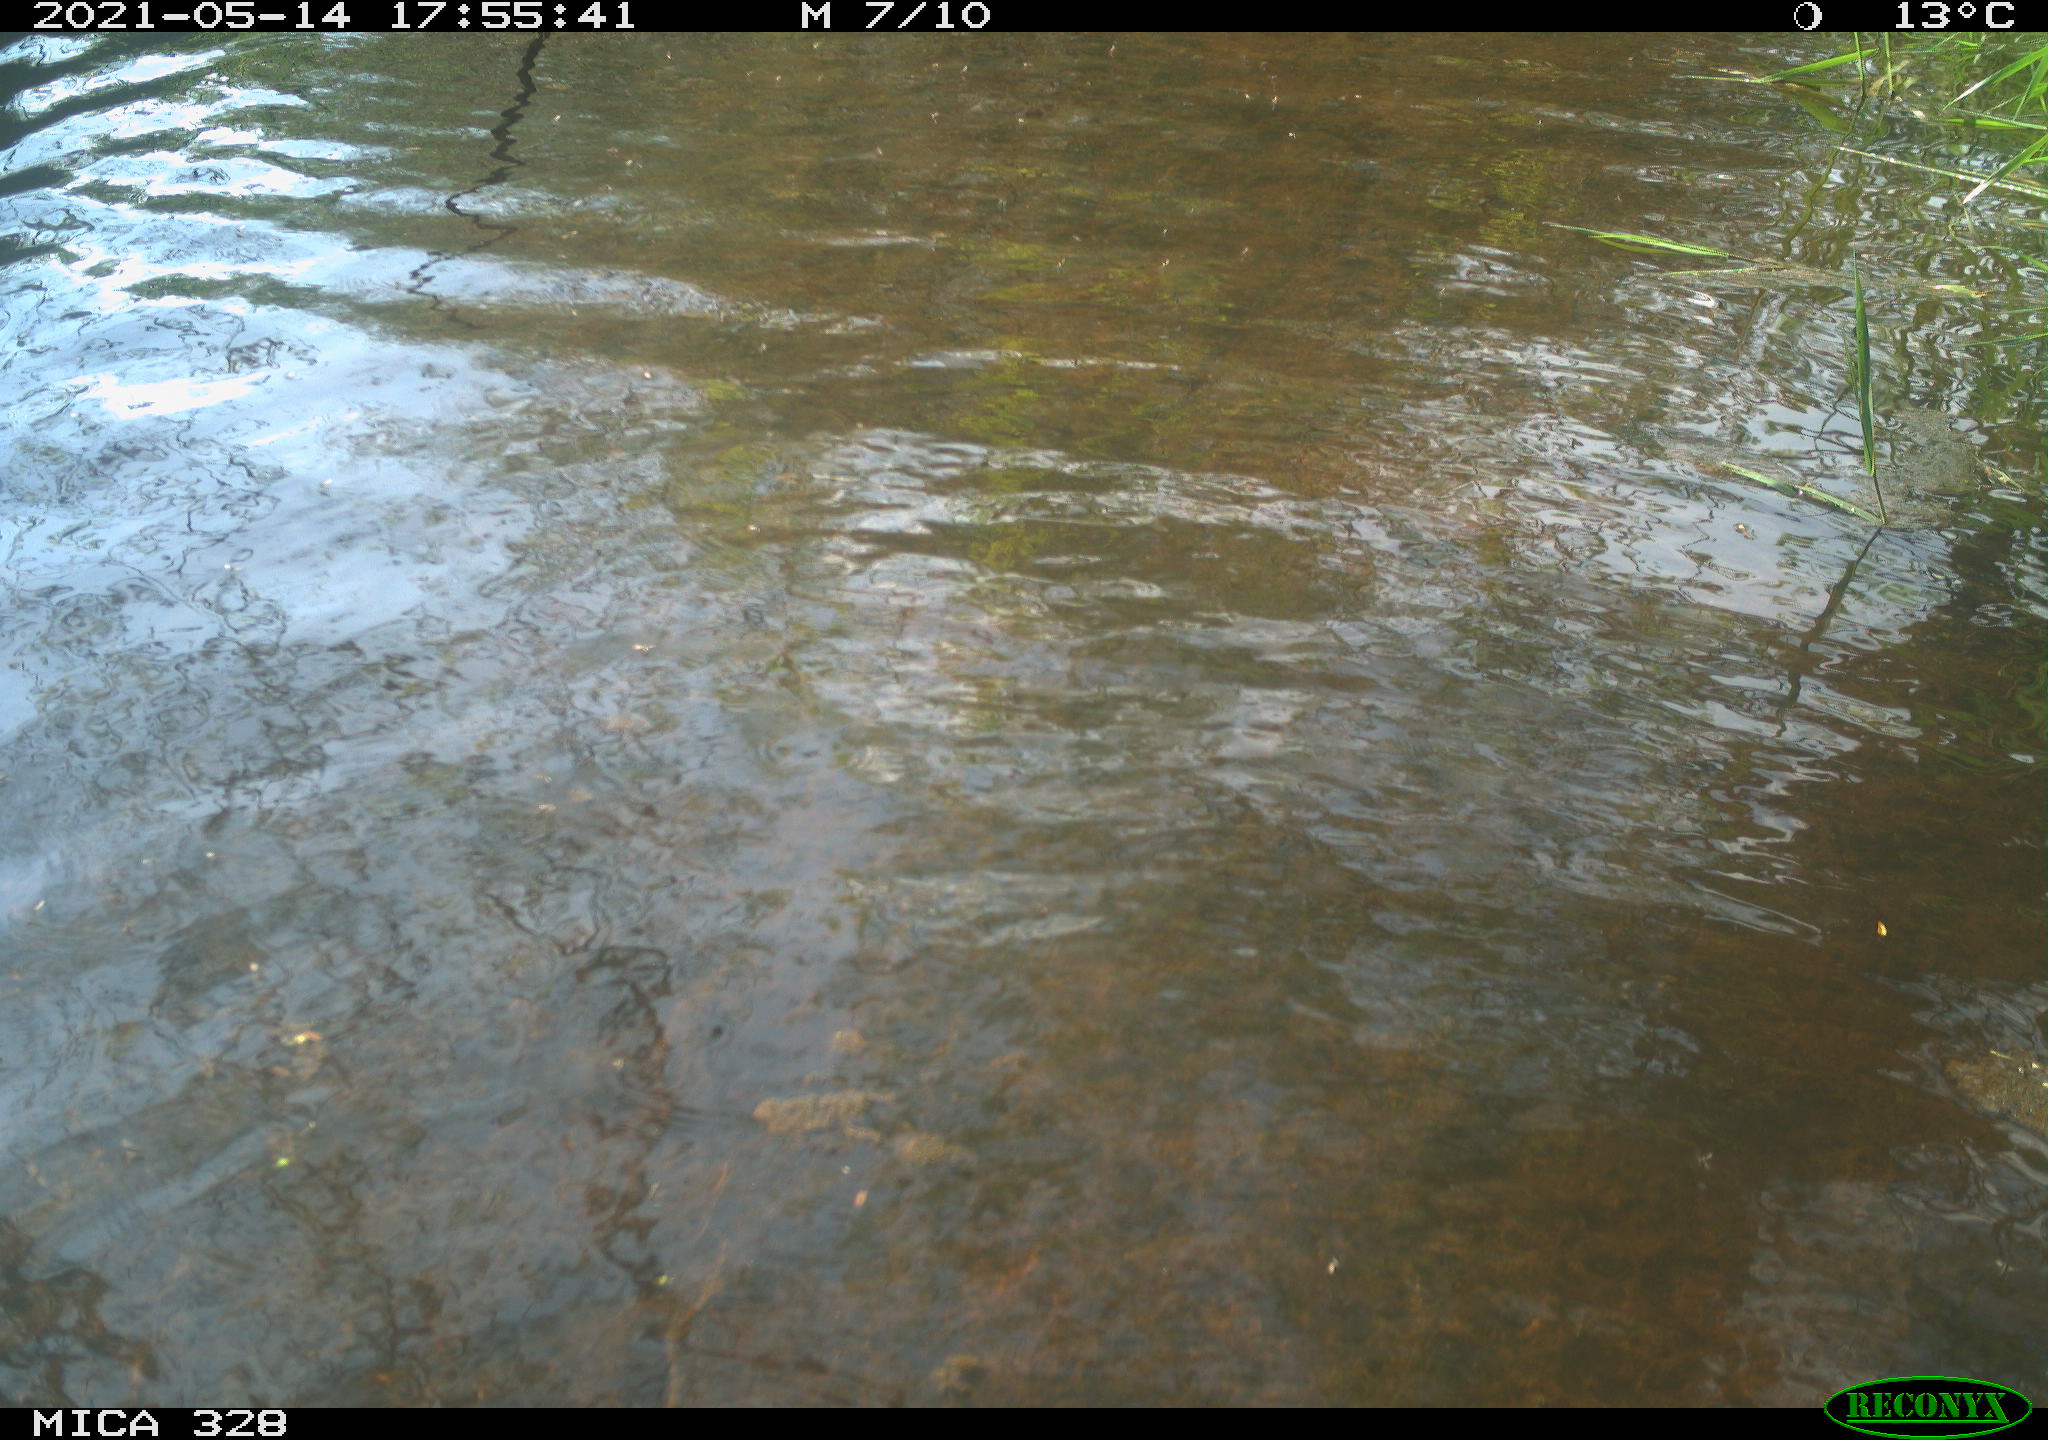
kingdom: Animalia
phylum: Chordata
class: Mammalia
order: Rodentia
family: Cricetidae
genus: Ondatra
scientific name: Ondatra zibethicus
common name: Muskrat
